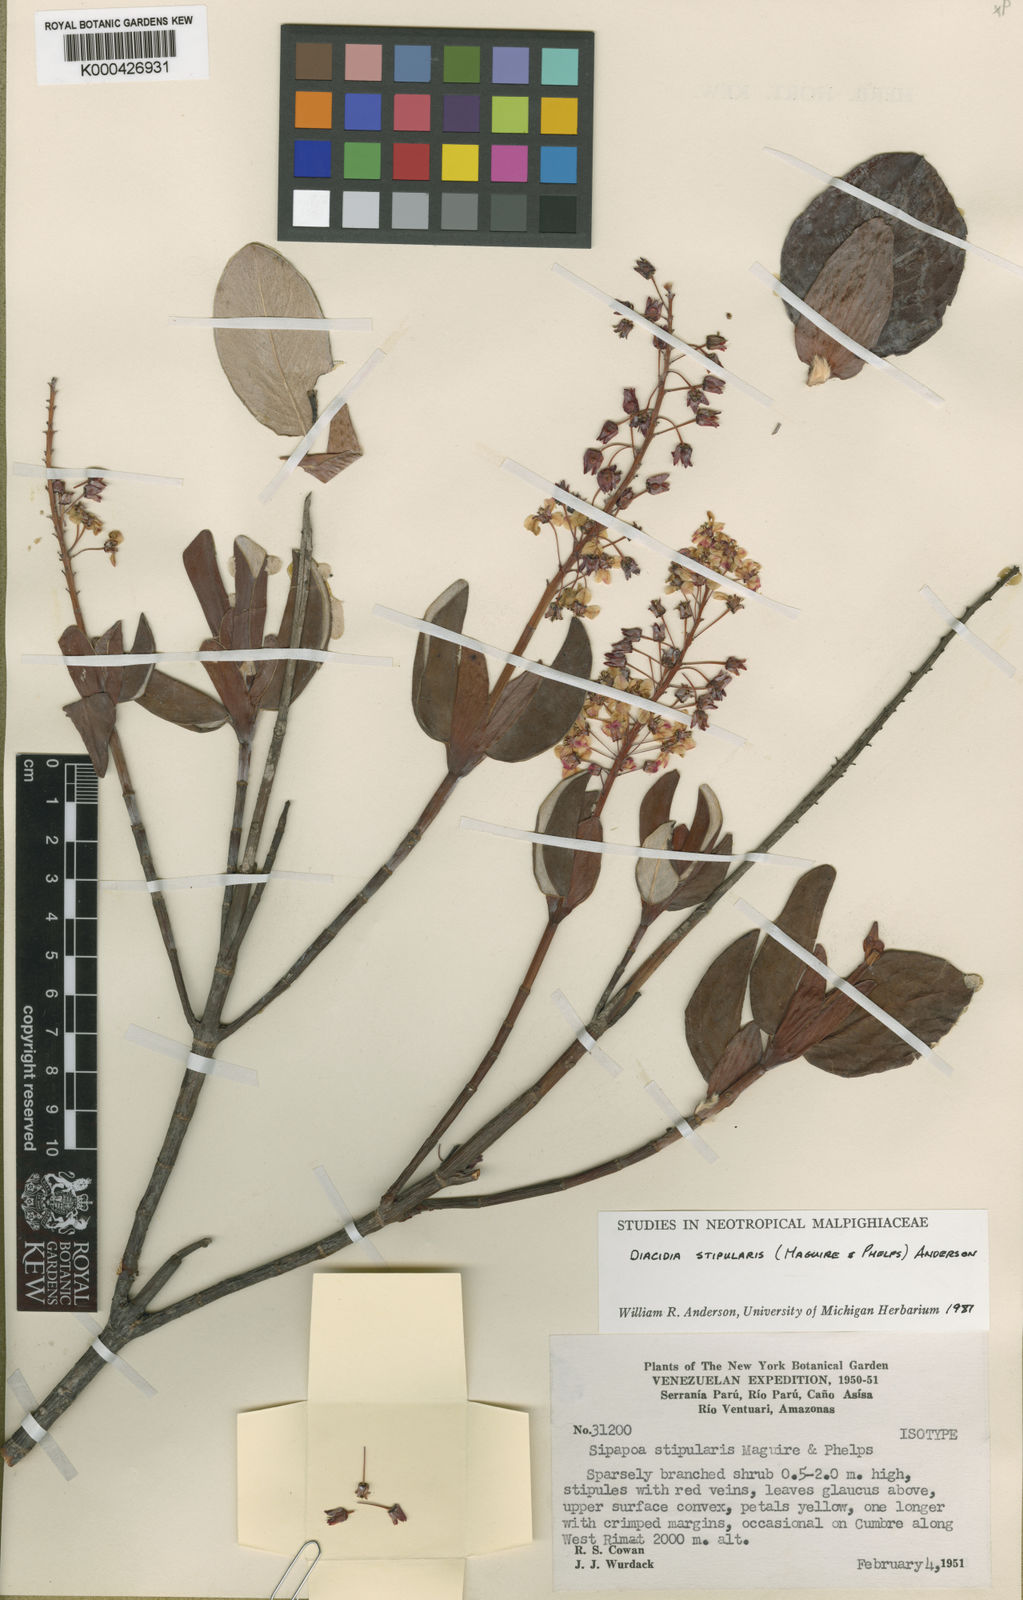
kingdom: Plantae
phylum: Tracheophyta
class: Magnoliopsida
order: Malpighiales
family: Malpighiaceae
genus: Diacidia
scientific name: Diacidia stipularis
